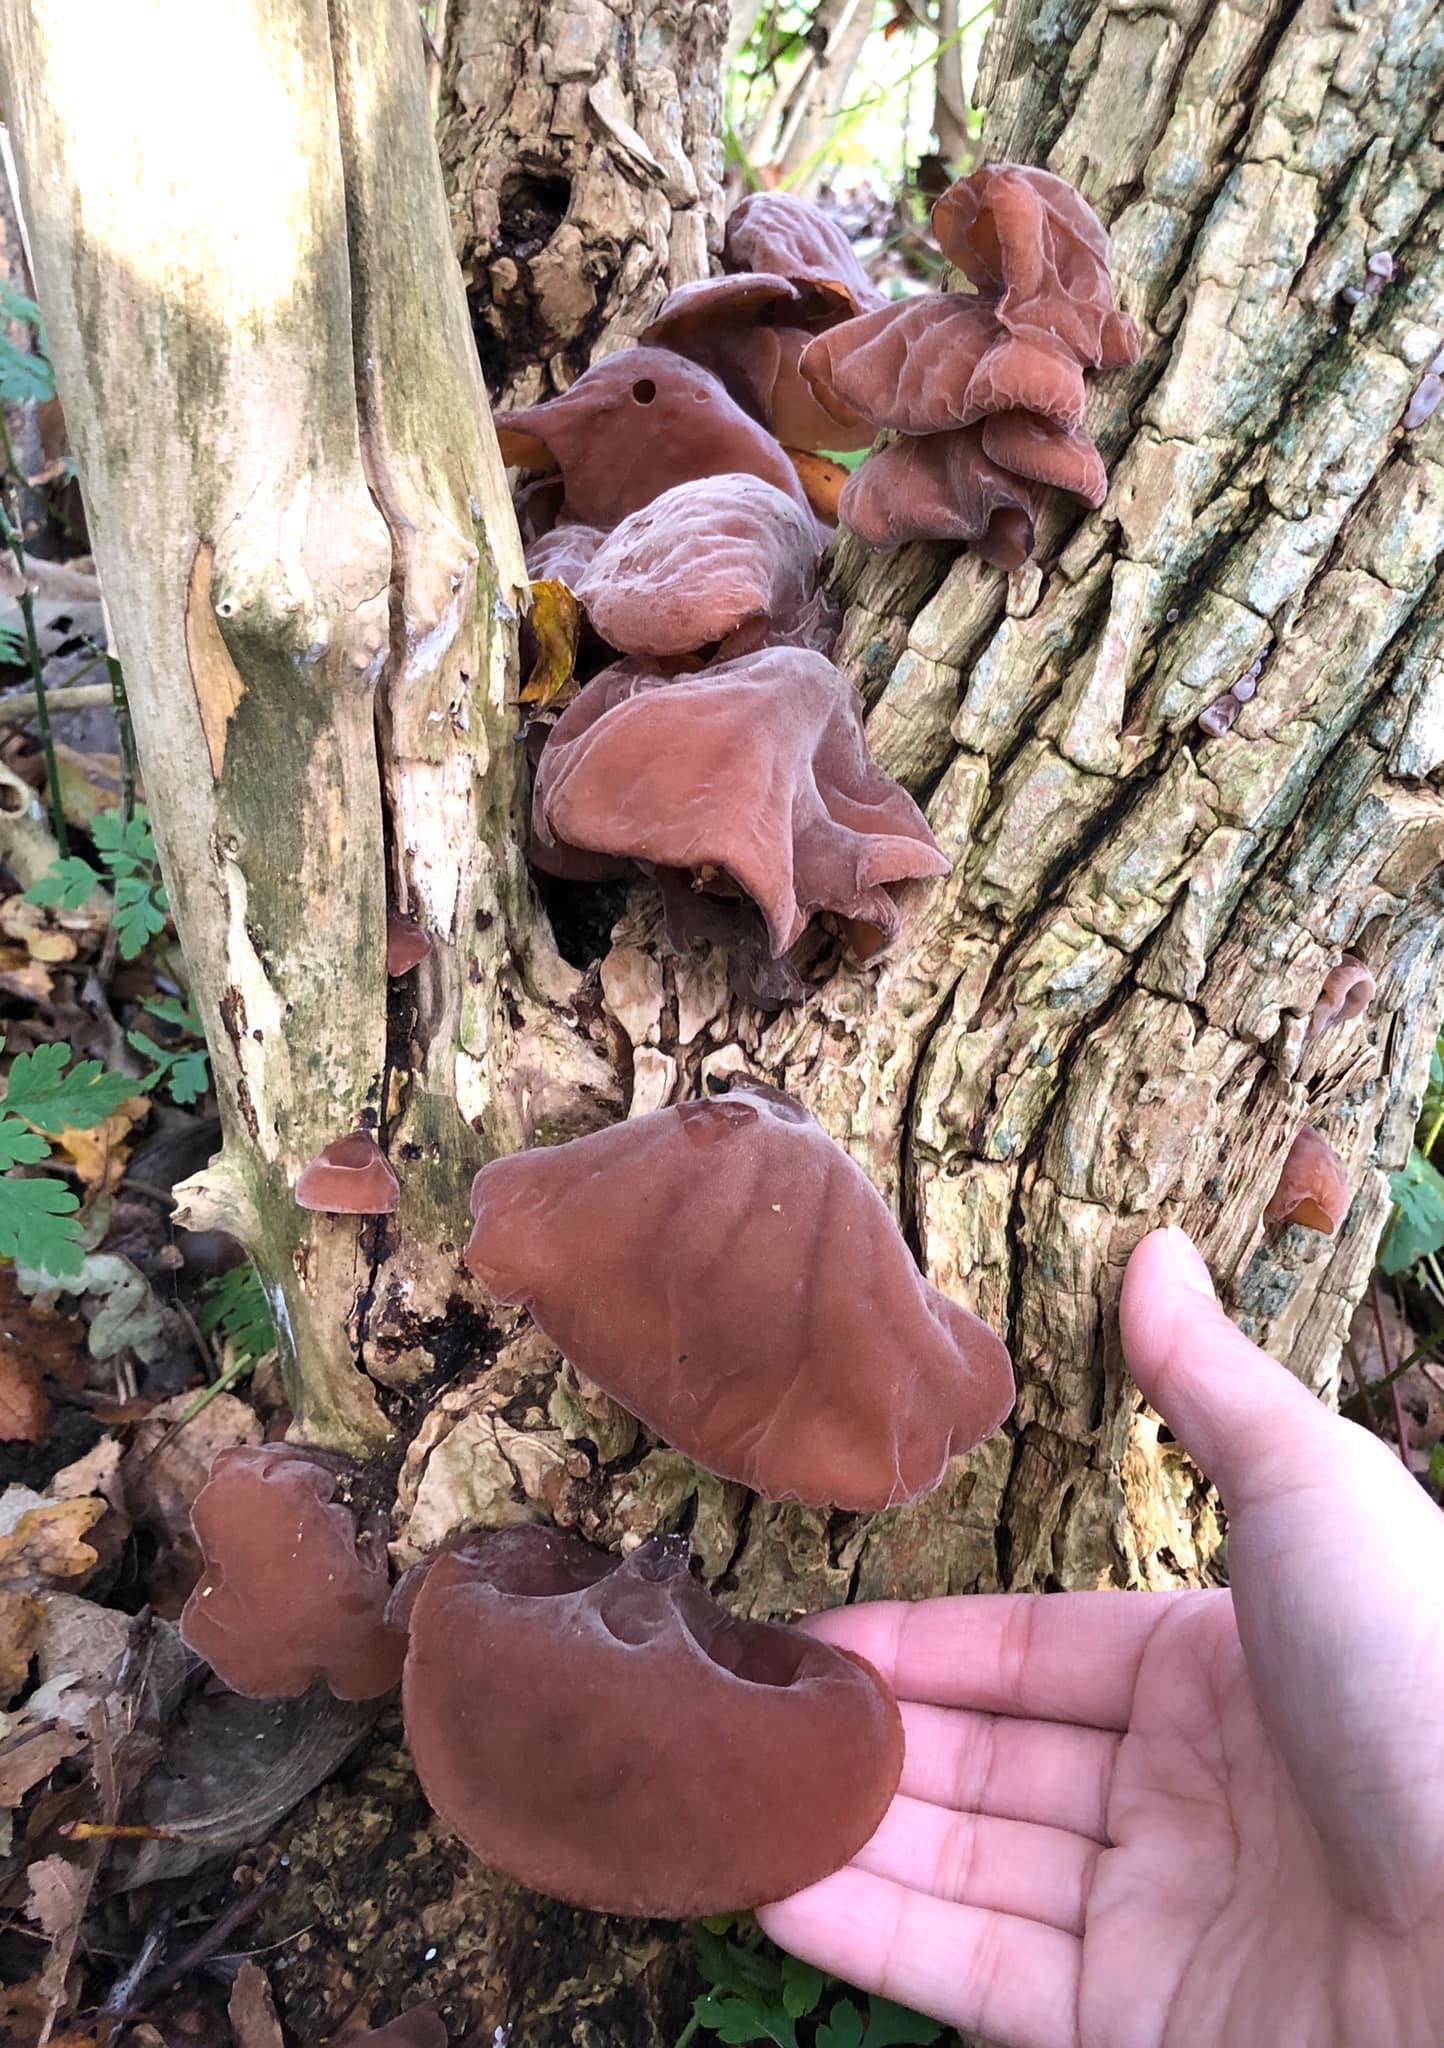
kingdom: Fungi
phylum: Basidiomycota
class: Agaricomycetes
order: Auriculariales
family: Auriculariaceae
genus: Auricularia
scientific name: Auricularia auricula-judae
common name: almindelig judasøre
